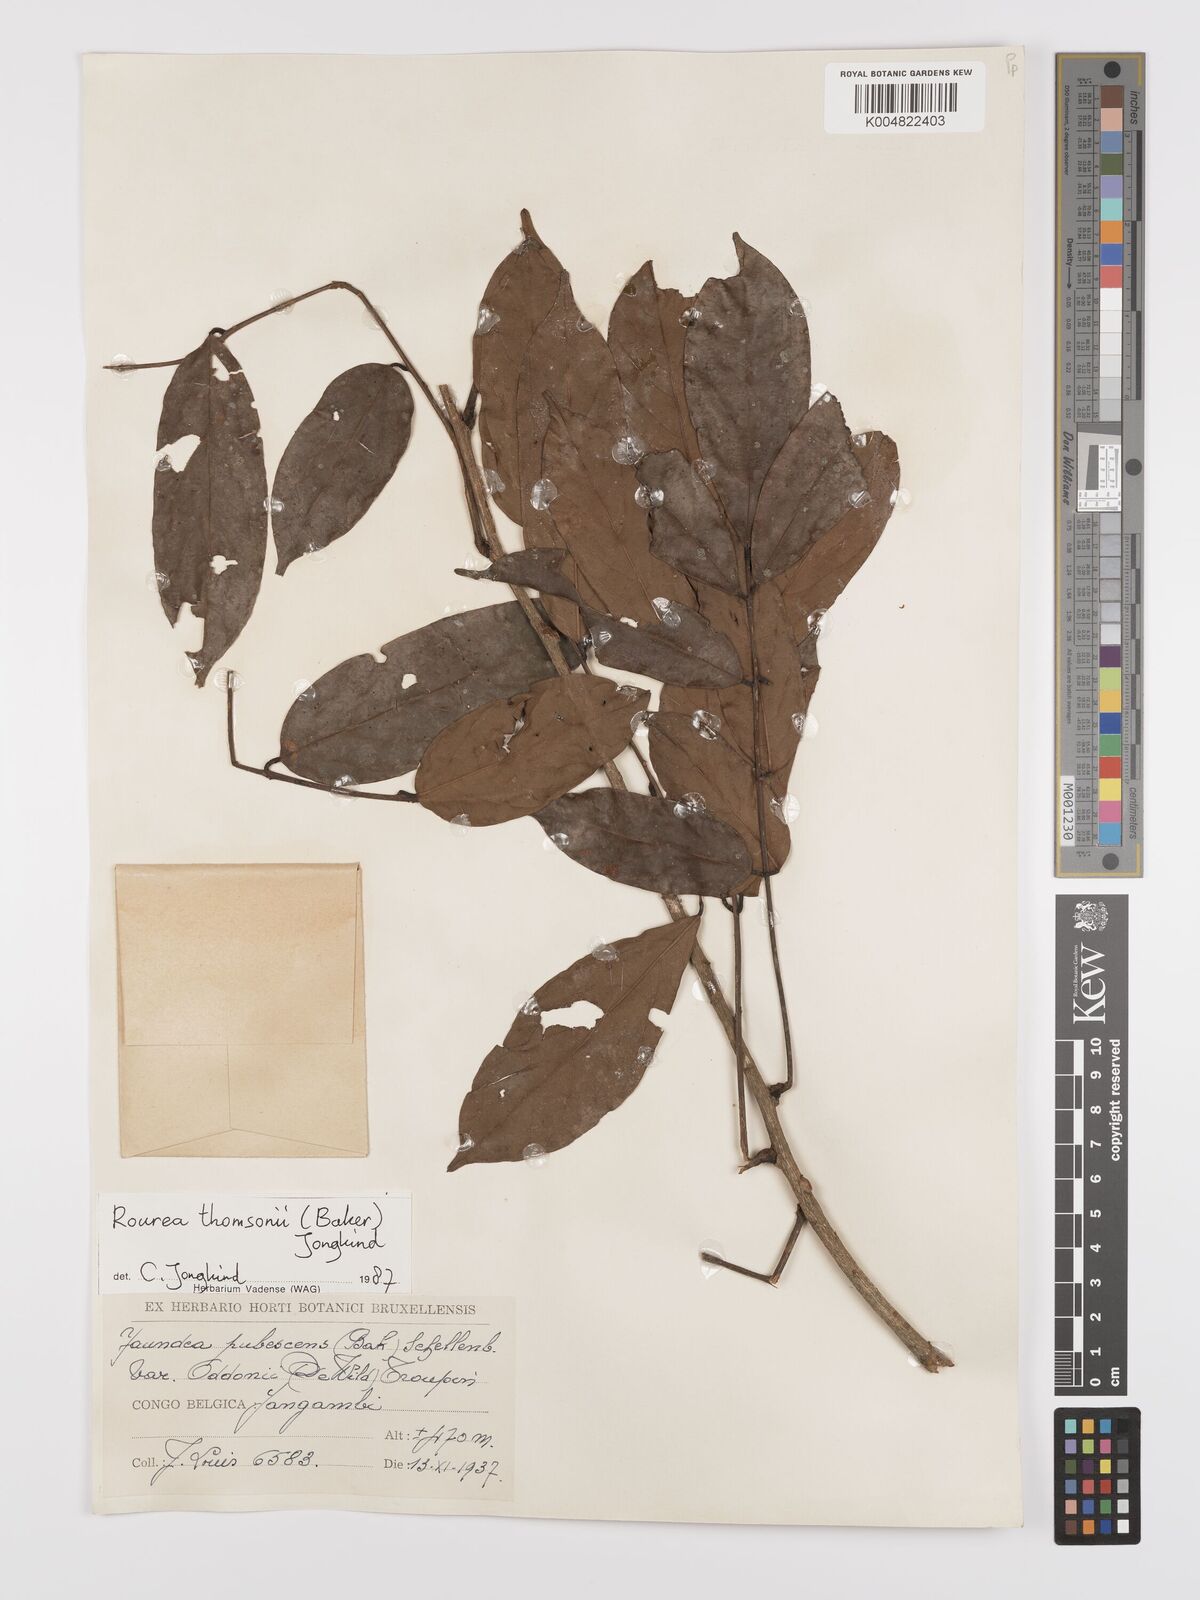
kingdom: Plantae
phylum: Tracheophyta
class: Magnoliopsida
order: Oxalidales
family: Connaraceae
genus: Rourea
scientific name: Rourea pubescens
